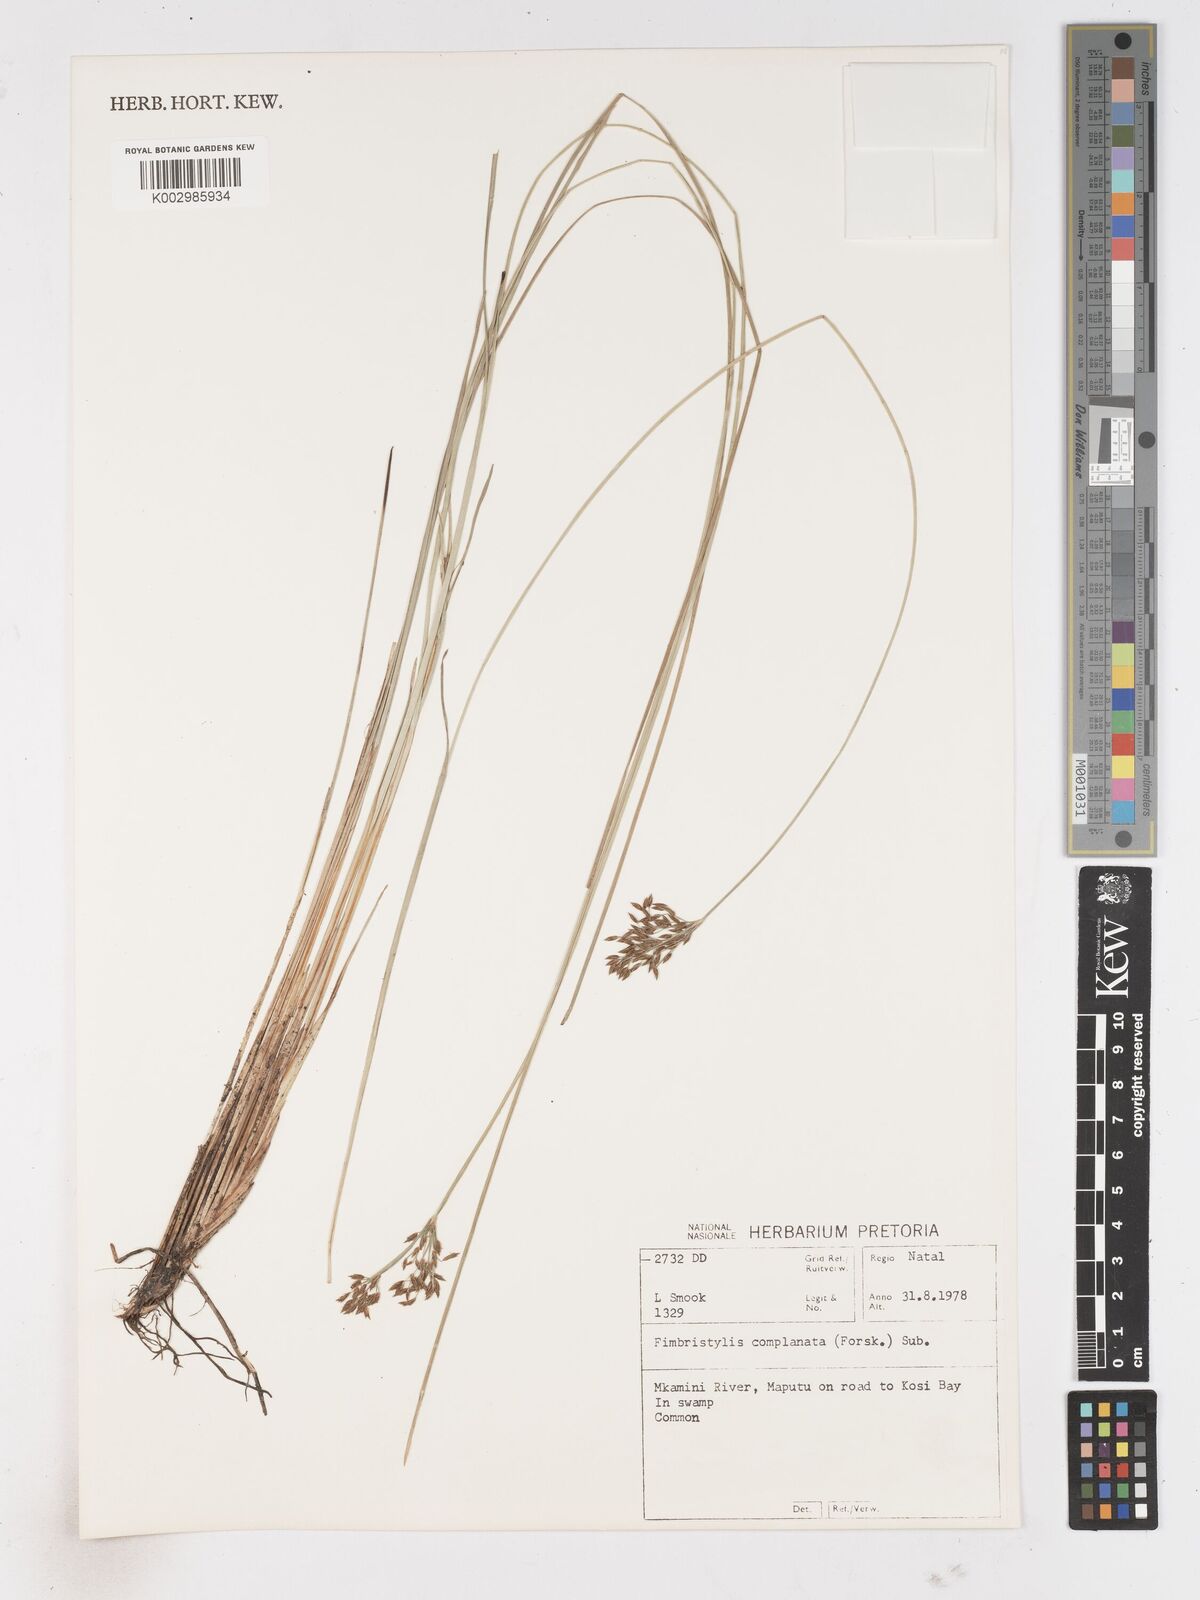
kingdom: Plantae
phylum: Tracheophyta
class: Liliopsida
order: Poales
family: Cyperaceae
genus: Fimbristylis
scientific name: Fimbristylis complanata
